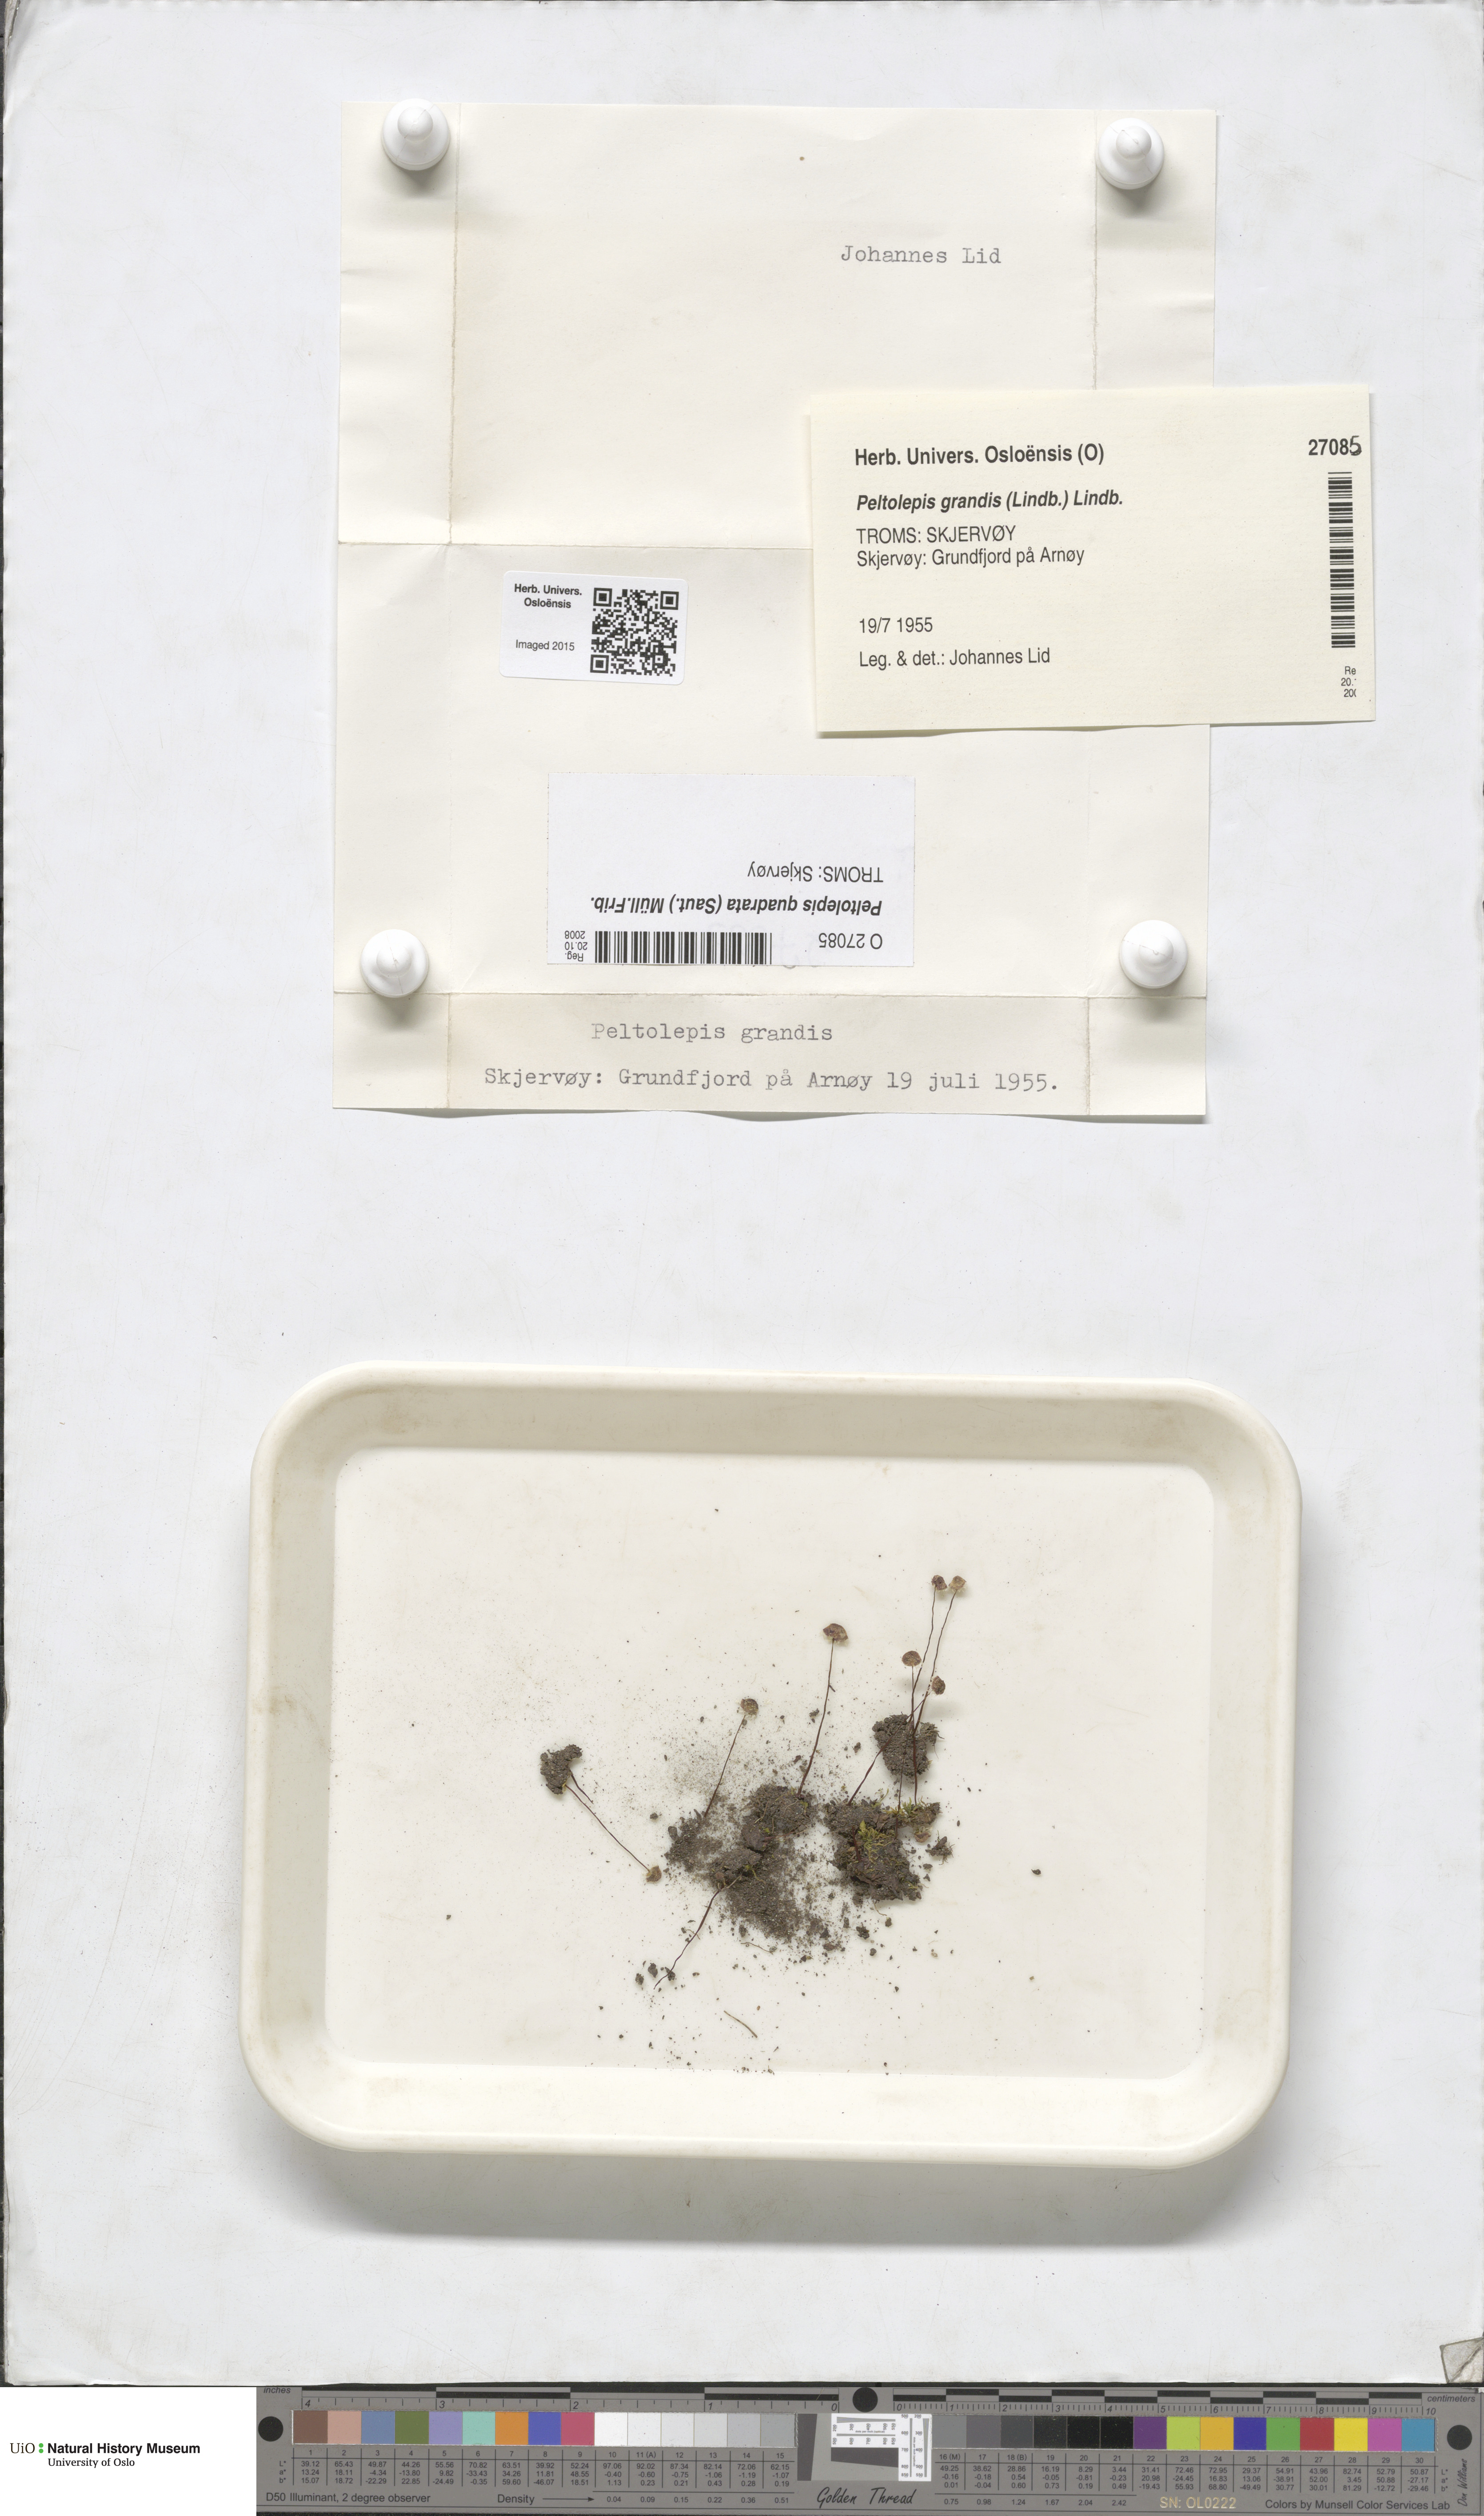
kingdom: Plantae
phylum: Marchantiophyta
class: Marchantiopsida
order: Marchantiales
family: Cleveaceae
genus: Peltolepis
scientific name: Peltolepis quadrata
